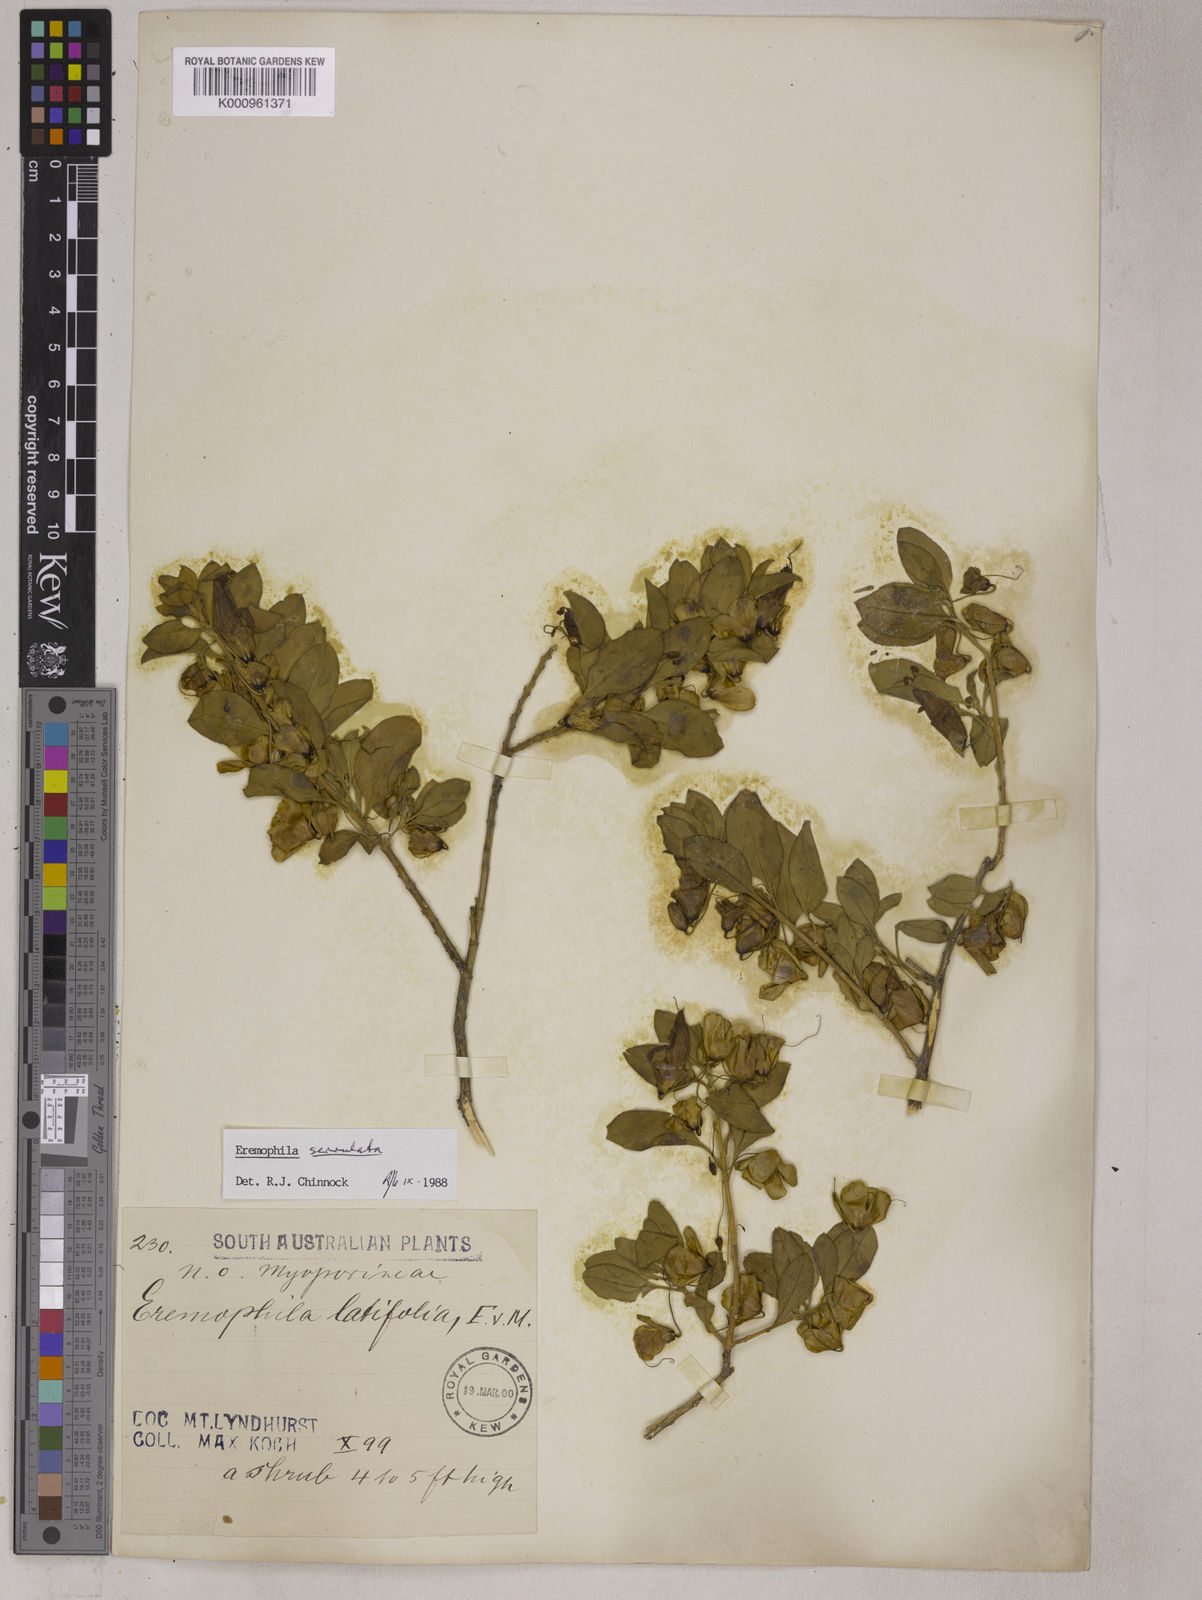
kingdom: Plantae
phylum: Tracheophyta
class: Magnoliopsida
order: Lamiales
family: Scrophulariaceae
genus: Eremophila
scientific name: Eremophila serrulata
